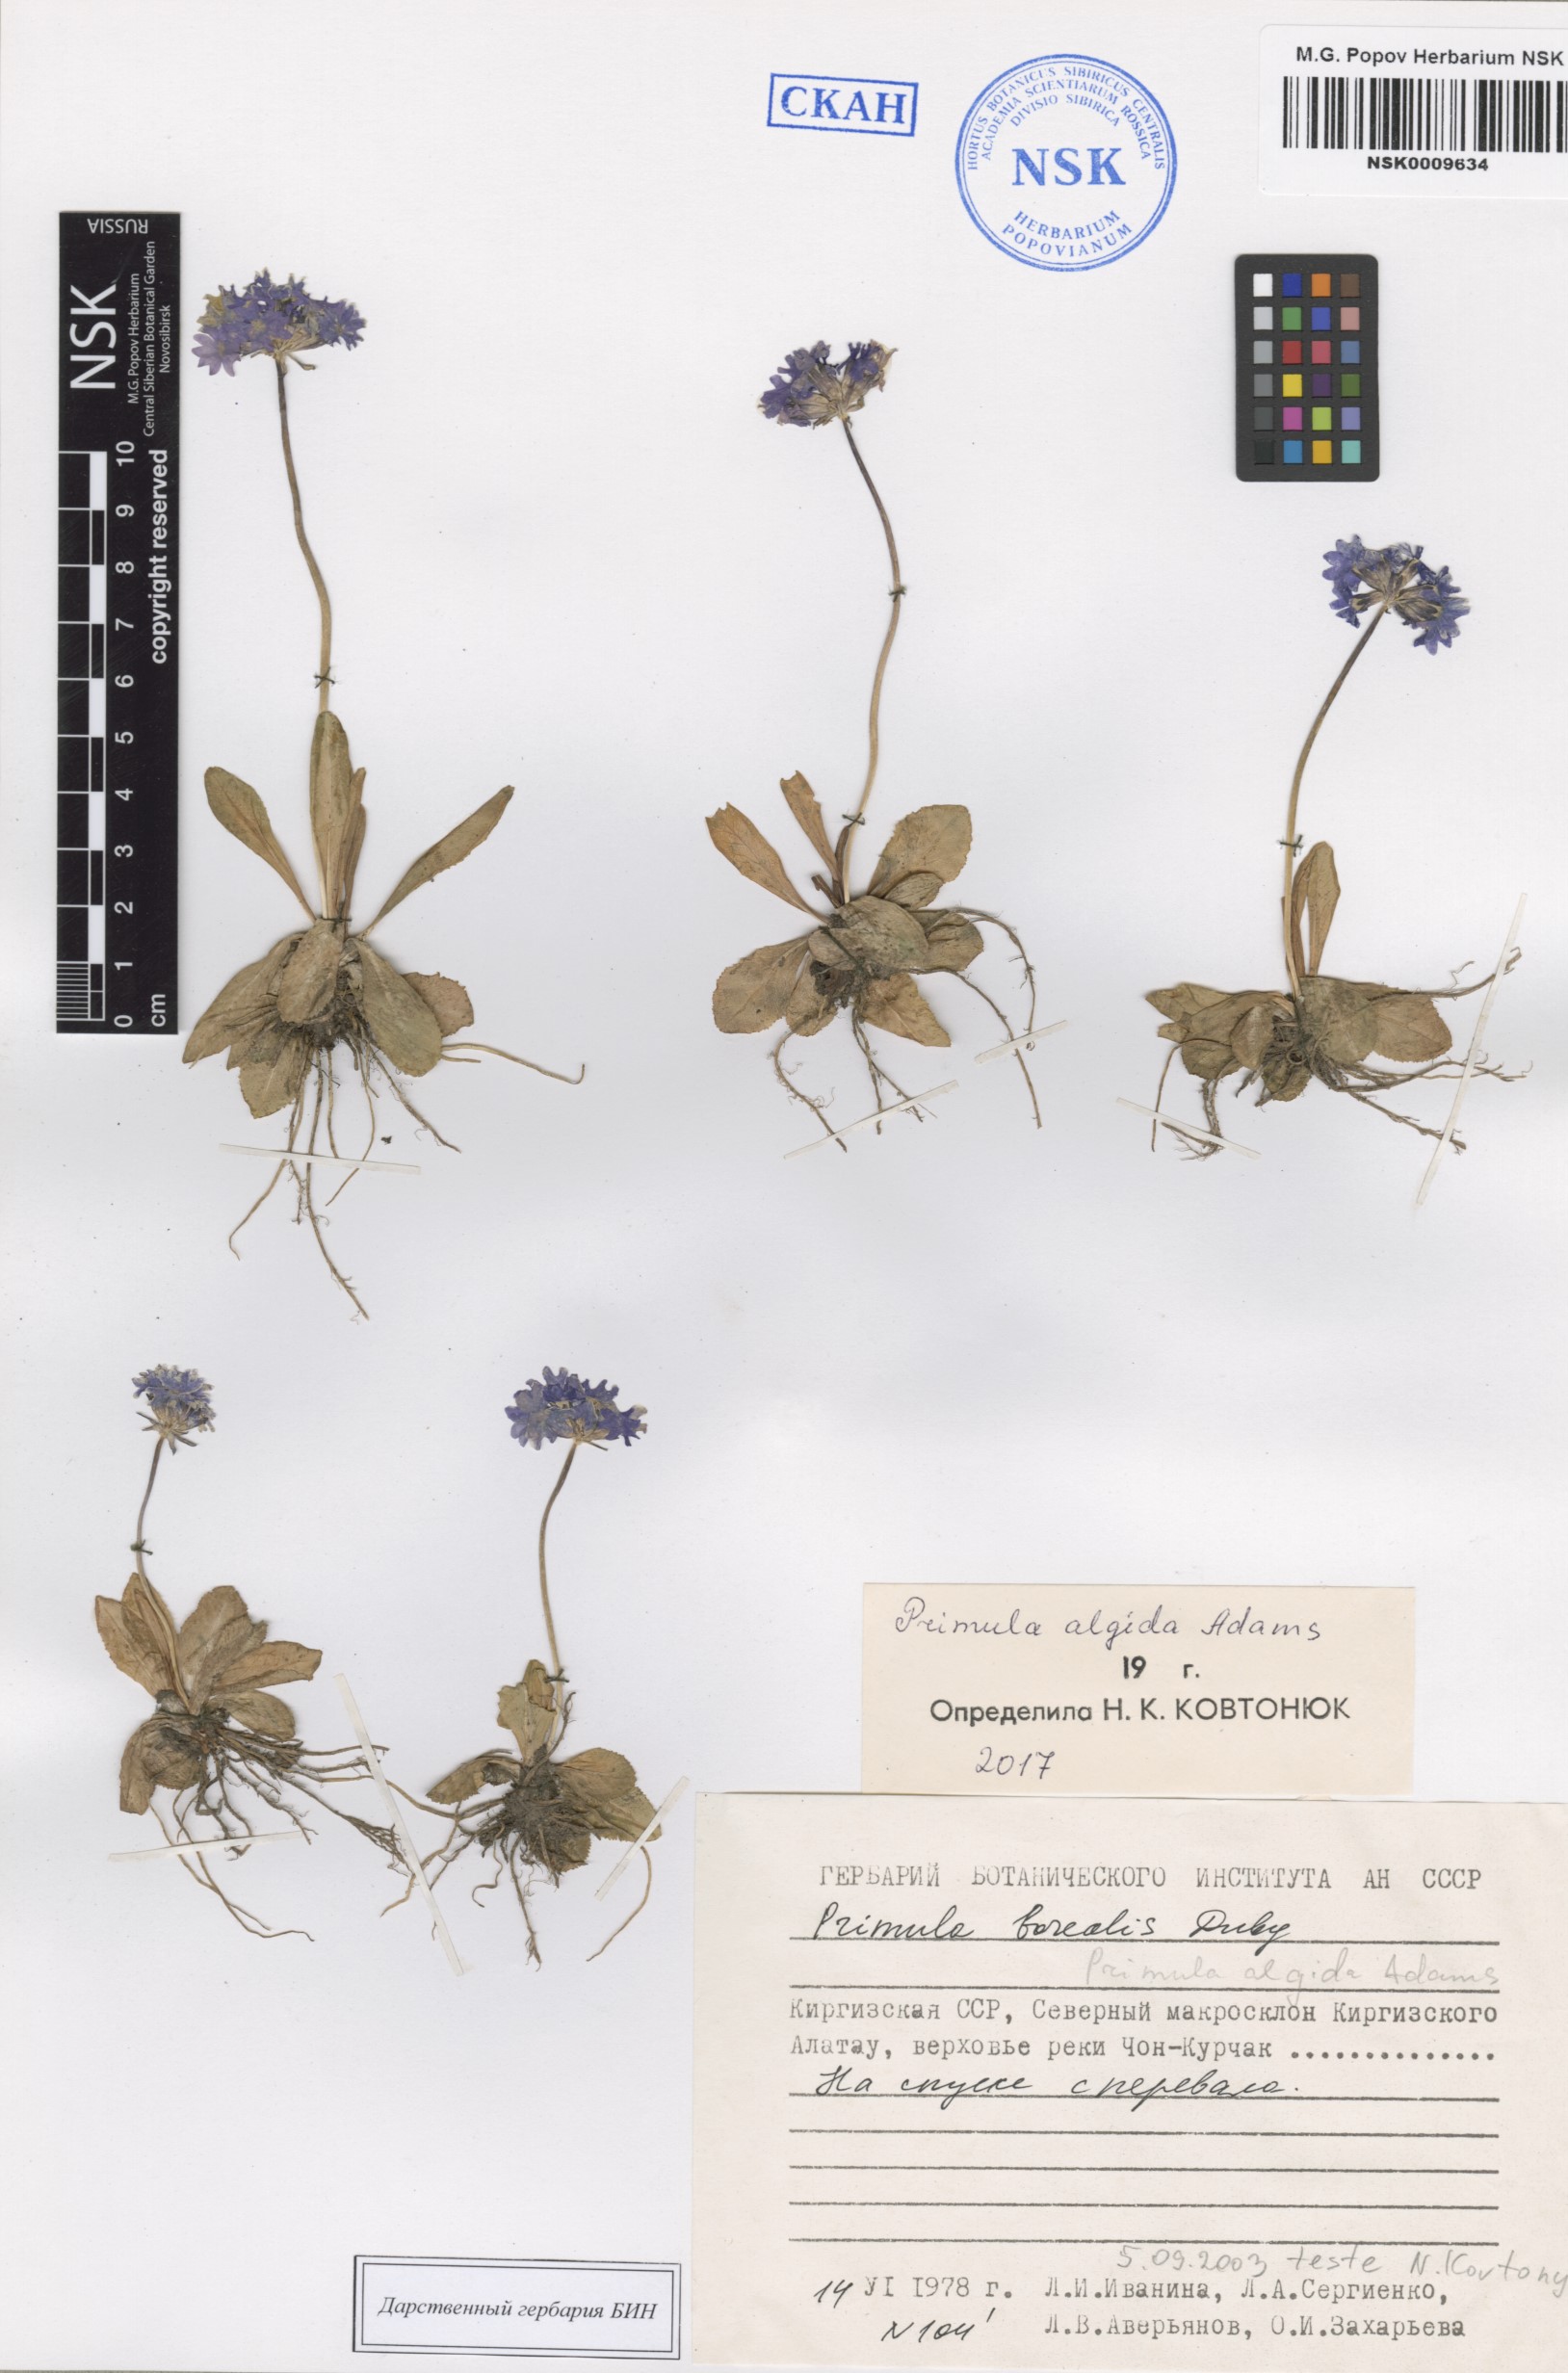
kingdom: Plantae
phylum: Tracheophyta
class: Magnoliopsida
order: Ericales
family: Primulaceae
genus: Primula
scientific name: Primula algida
